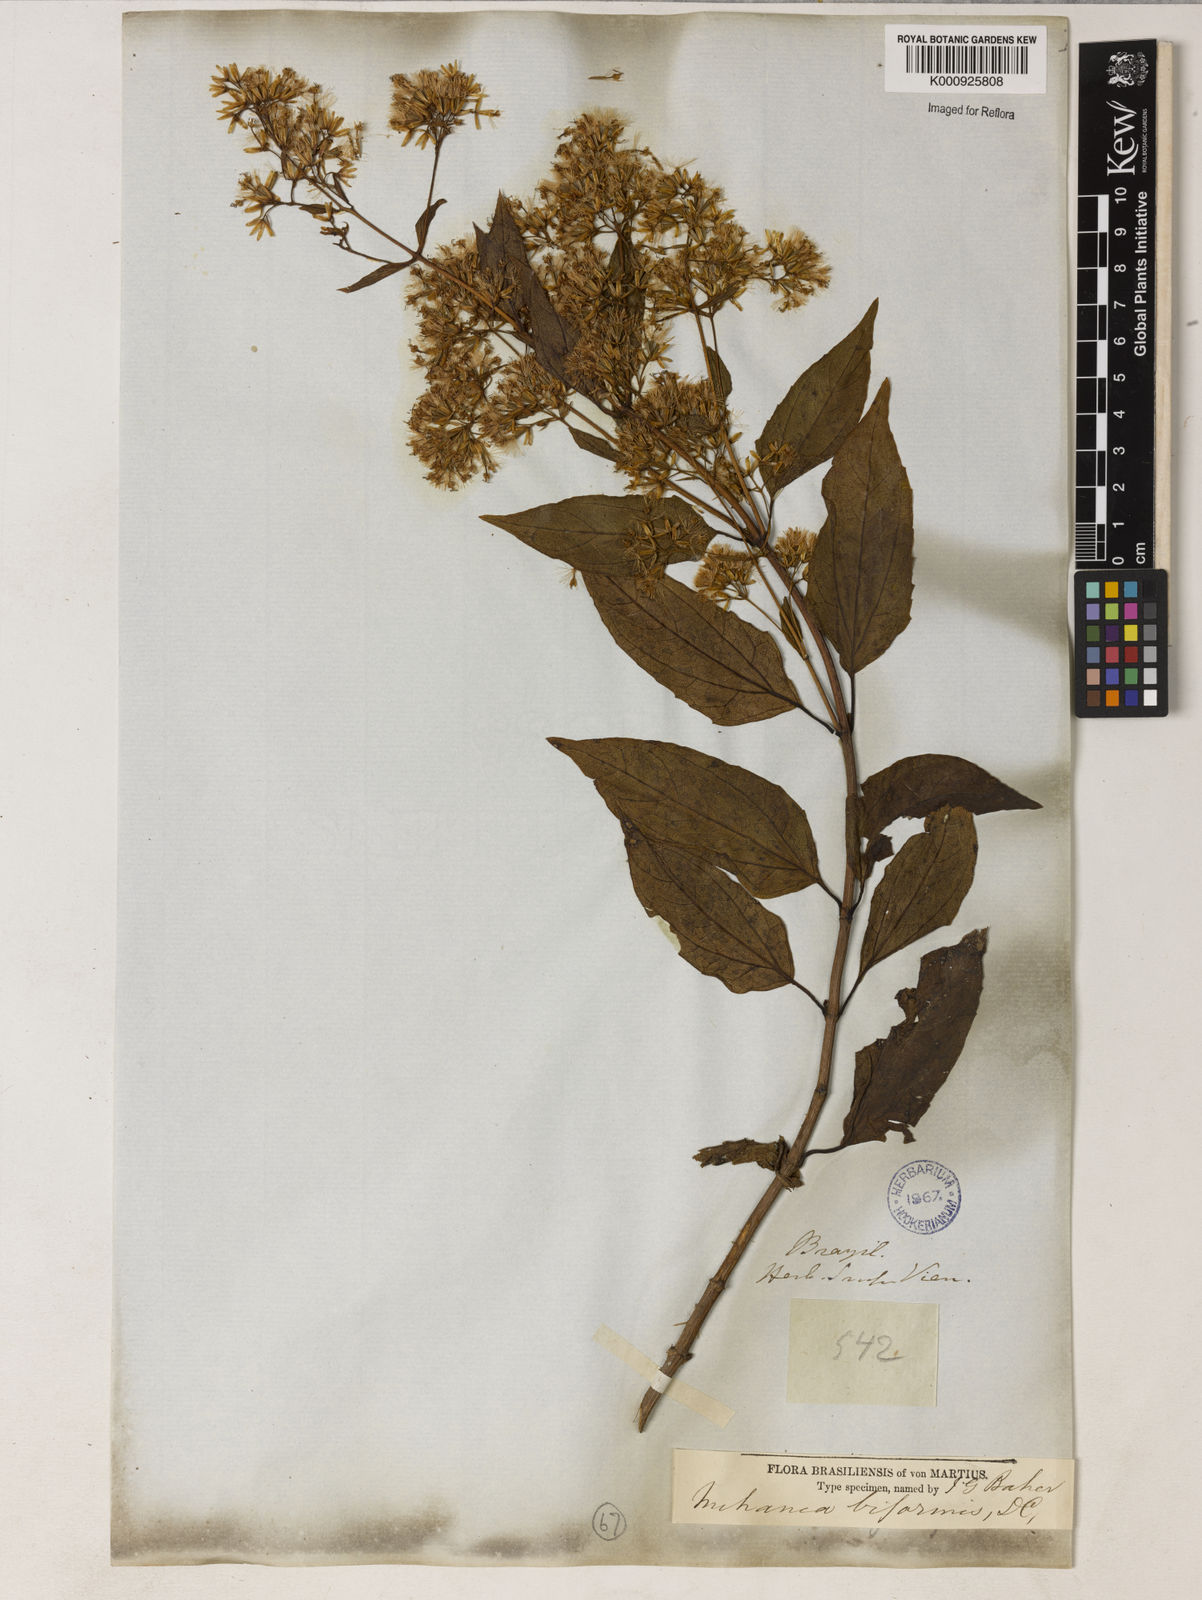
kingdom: Plantae
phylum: Tracheophyta
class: Magnoliopsida
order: Asterales
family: Asteraceae
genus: Mikania
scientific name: Mikania biformis
